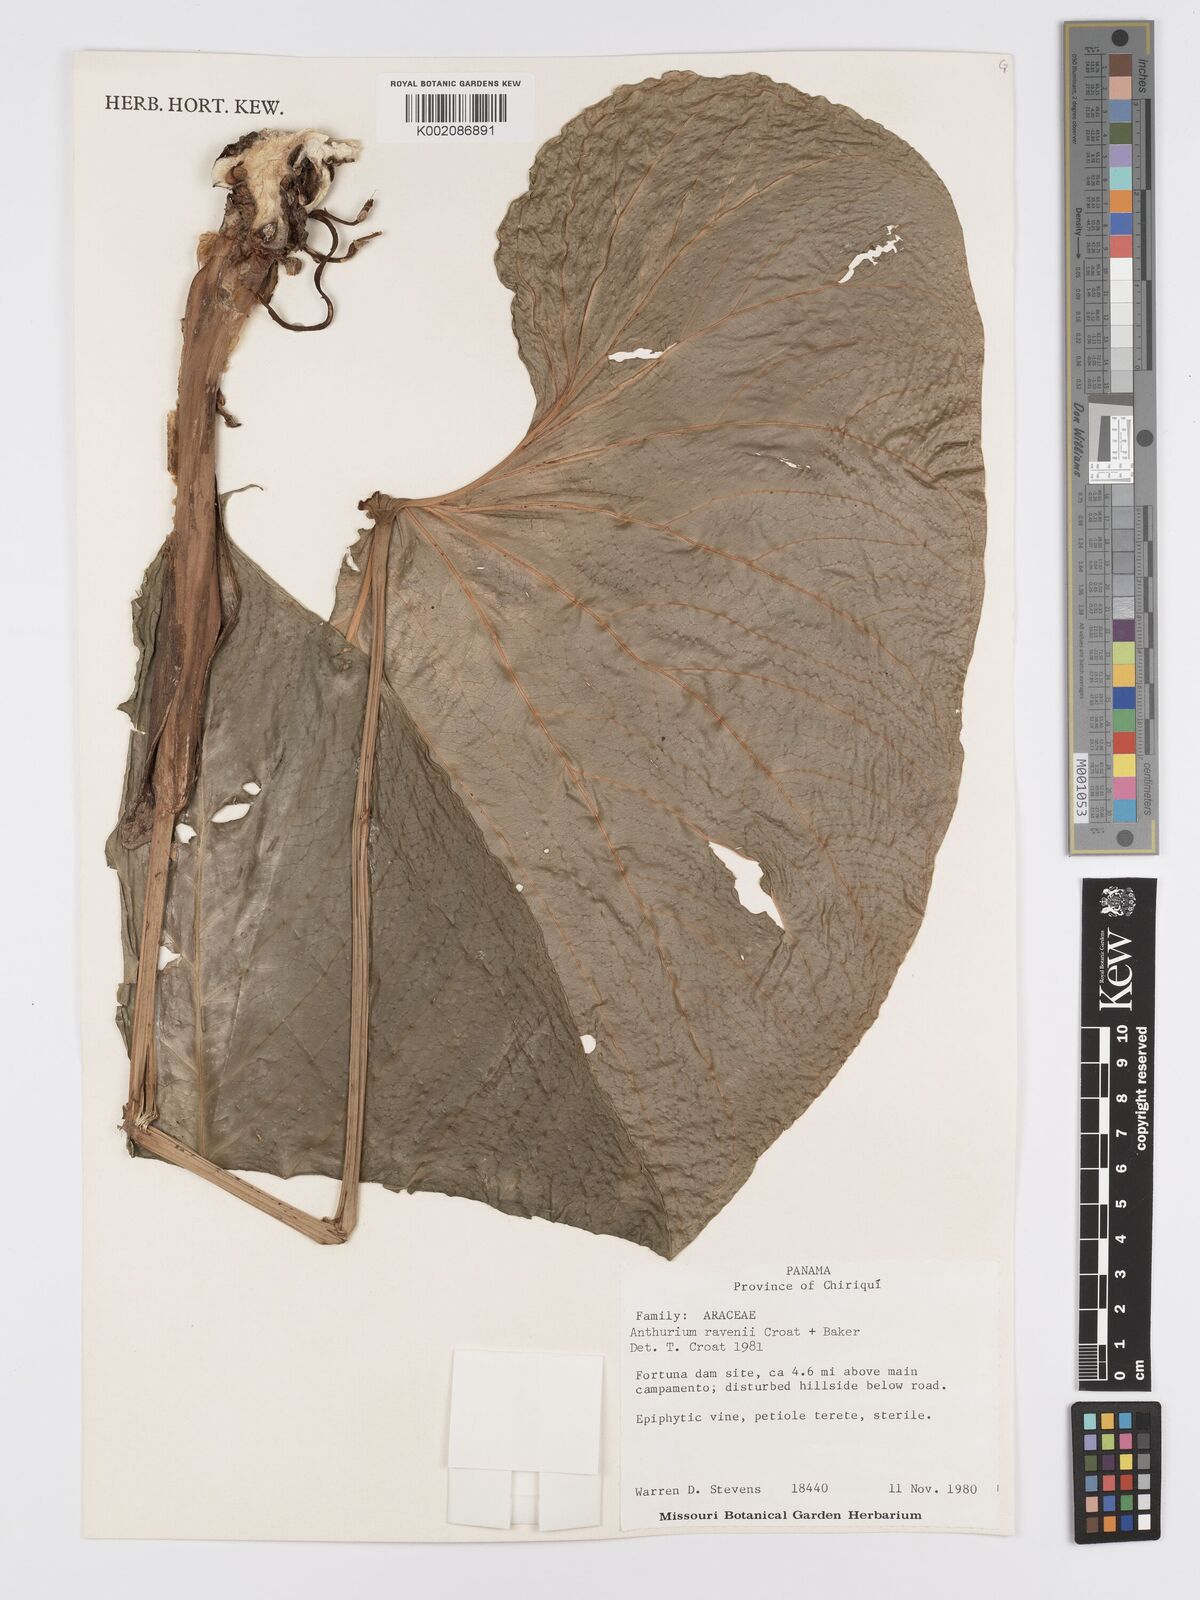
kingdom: Plantae
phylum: Tracheophyta
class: Liliopsida
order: Alismatales
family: Araceae
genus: Anthurium
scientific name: Anthurium ravenii
